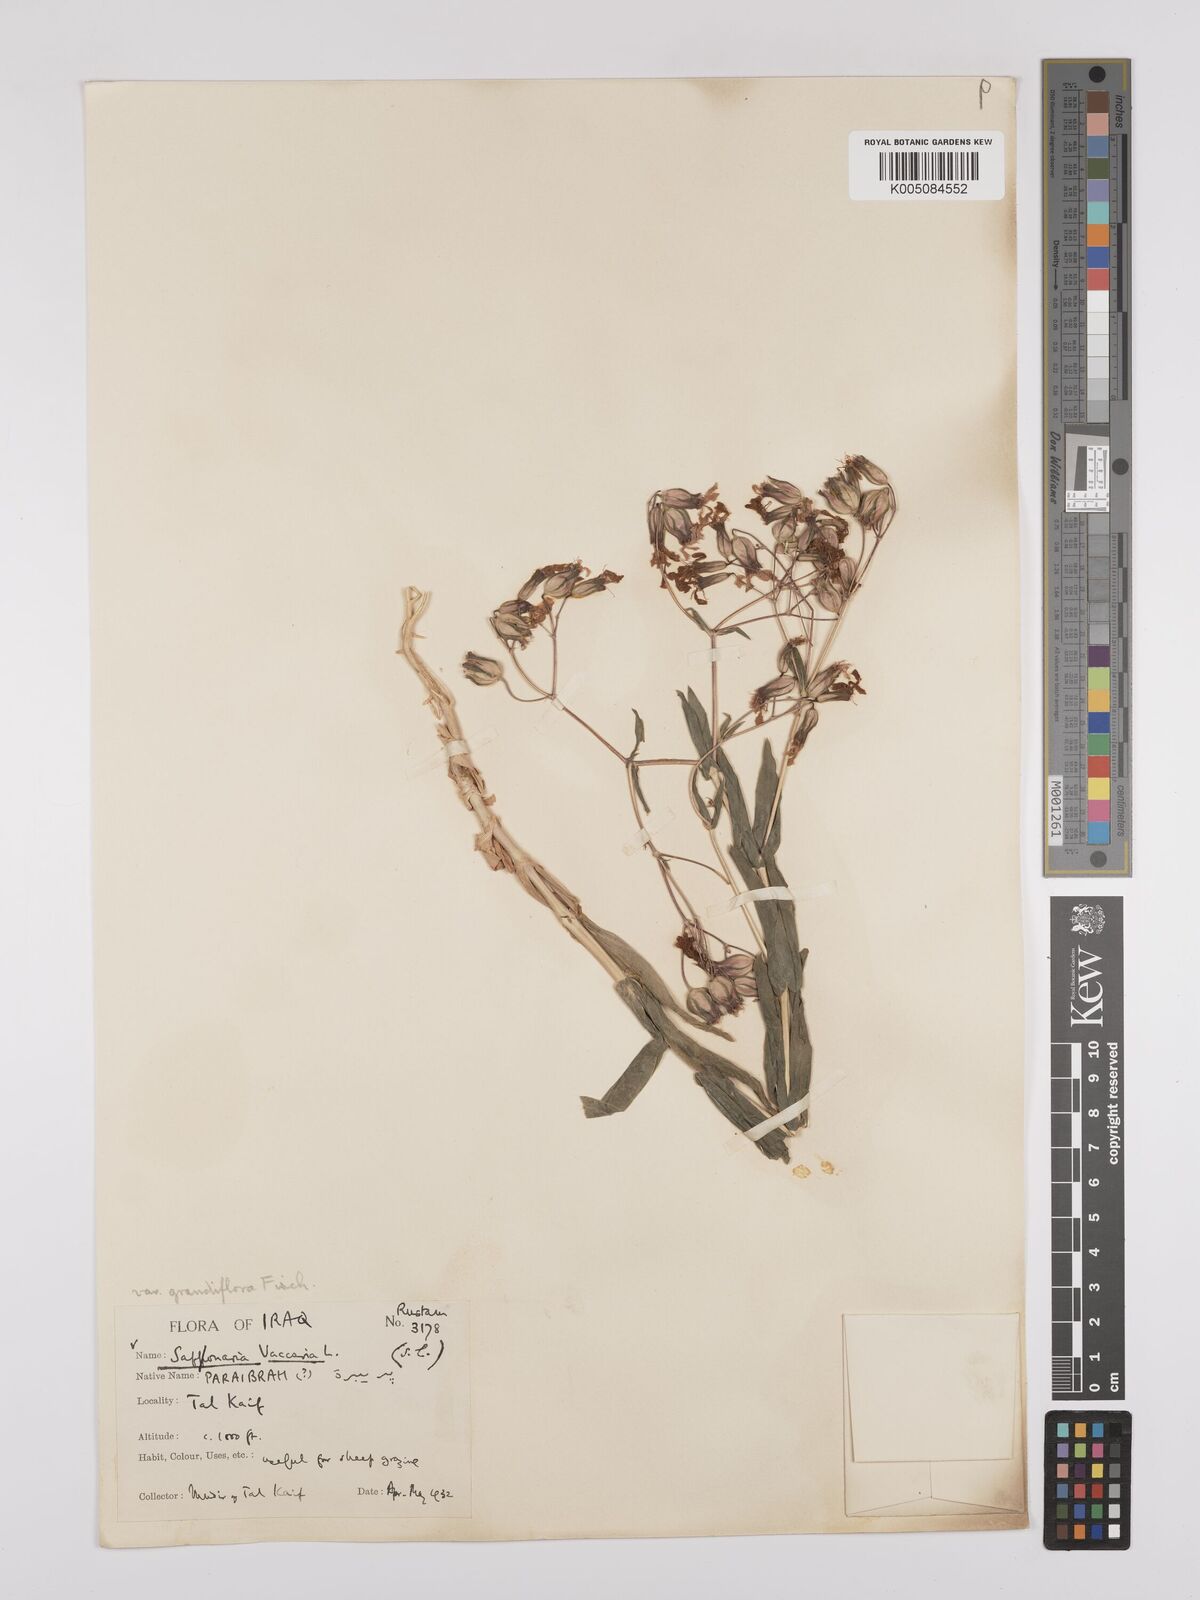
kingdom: Plantae
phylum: Tracheophyta
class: Magnoliopsida
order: Caryophyllales
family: Caryophyllaceae
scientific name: Caryophyllaceae
